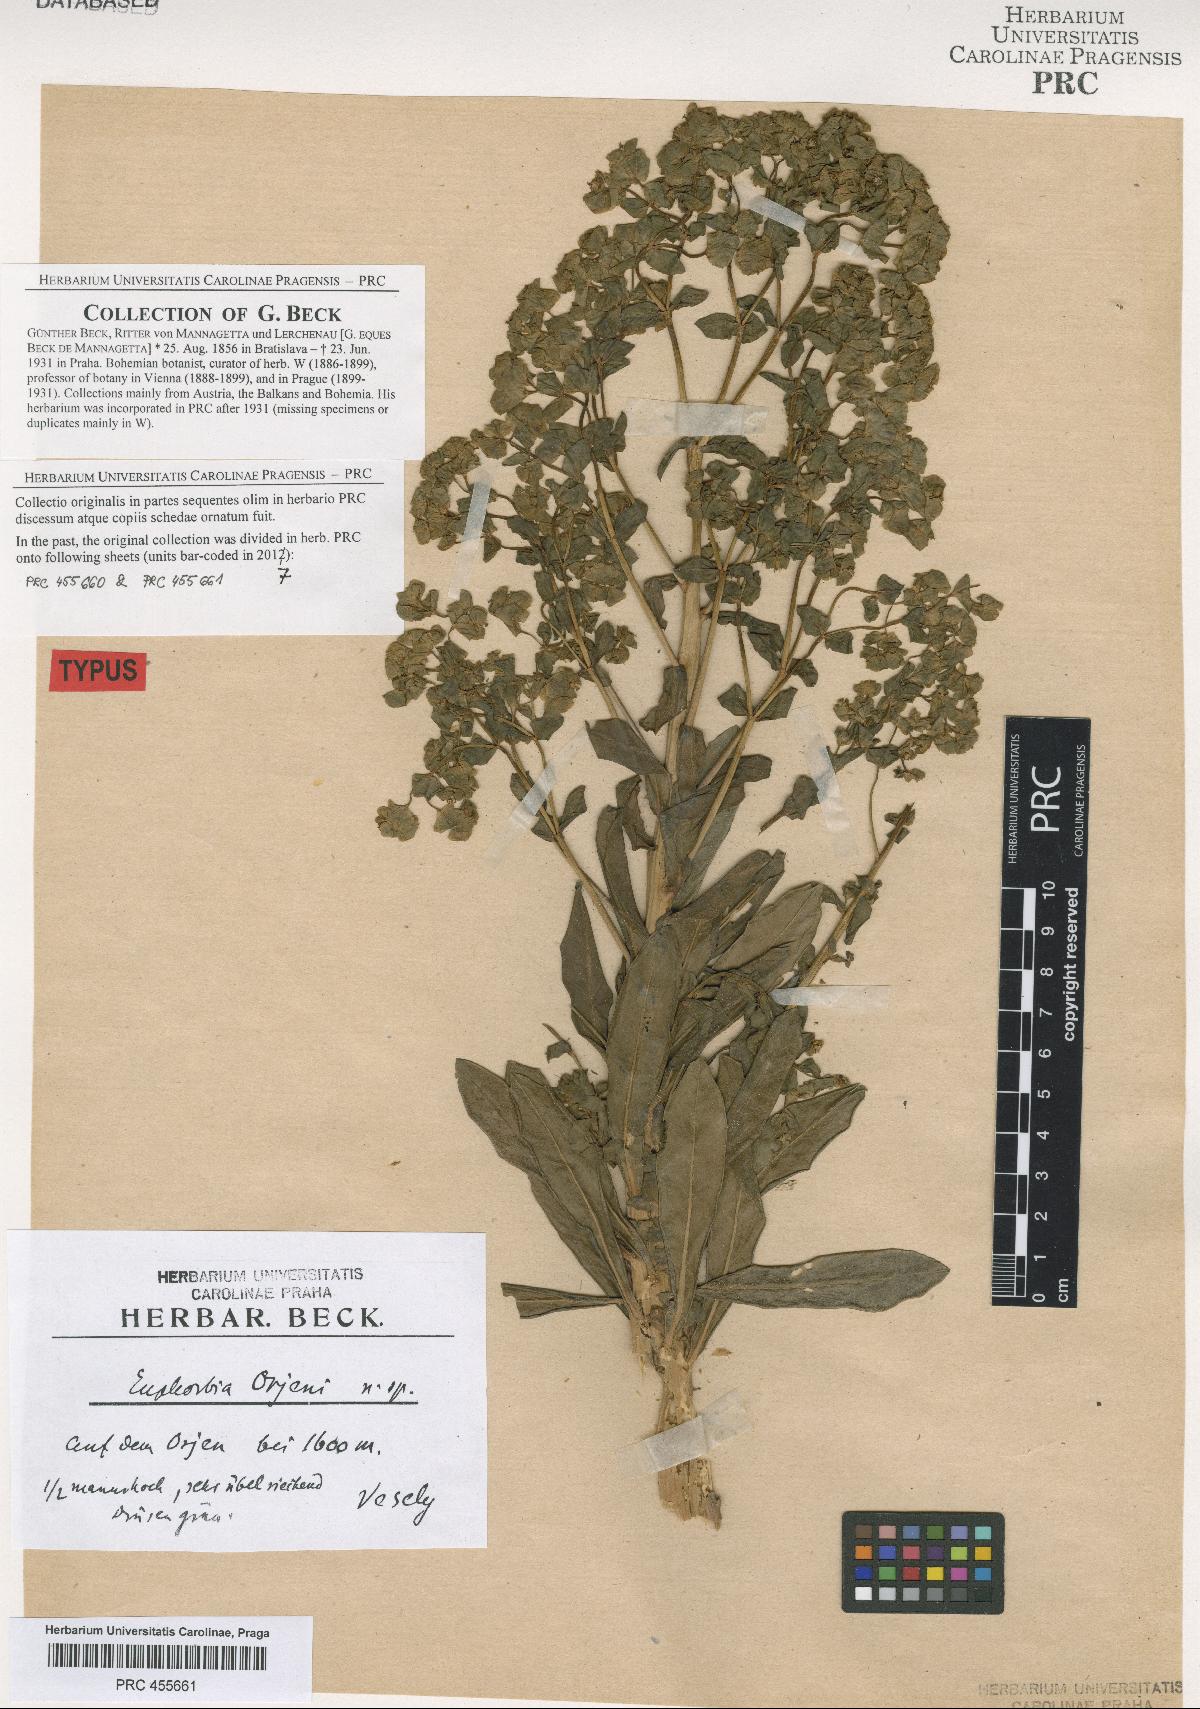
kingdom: Plantae
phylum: Tracheophyta
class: Magnoliopsida
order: Malpighiales
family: Euphorbiaceae
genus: Euphorbia
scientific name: Euphorbia orjeni
